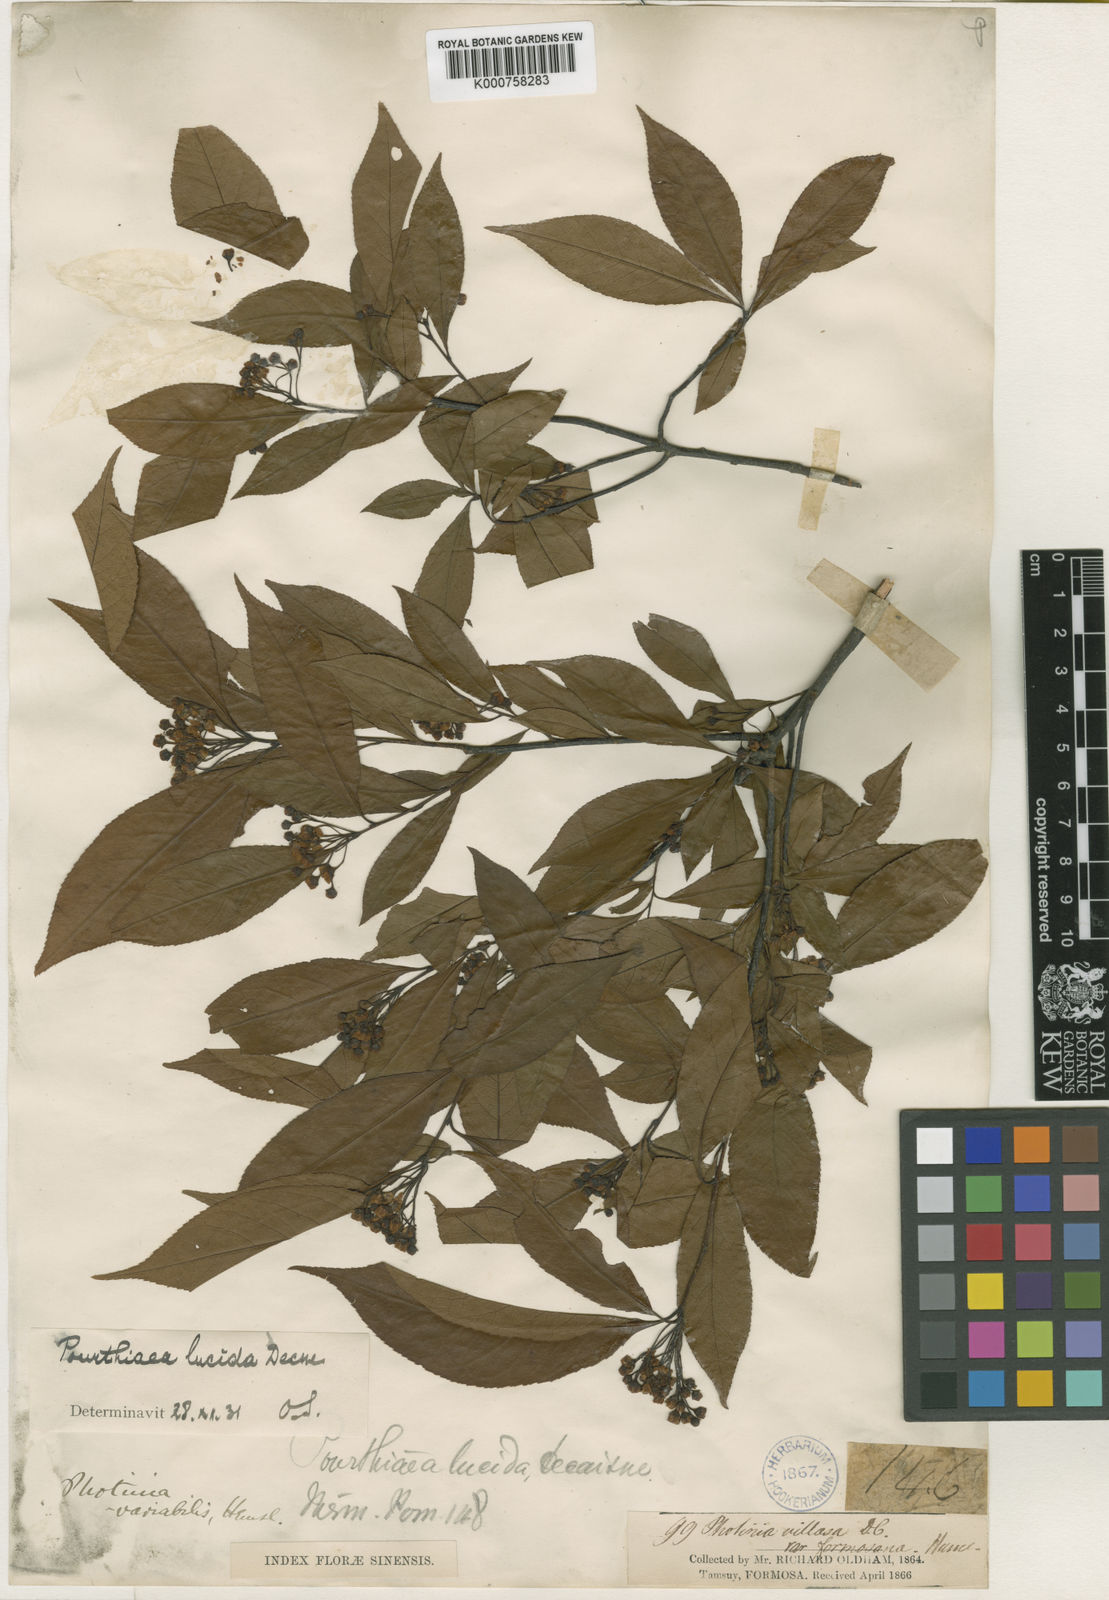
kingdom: Plantae
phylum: Tracheophyta
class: Magnoliopsida
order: Rosales
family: Rosaceae
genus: Pourthiaea
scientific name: Pourthiaea lucida
